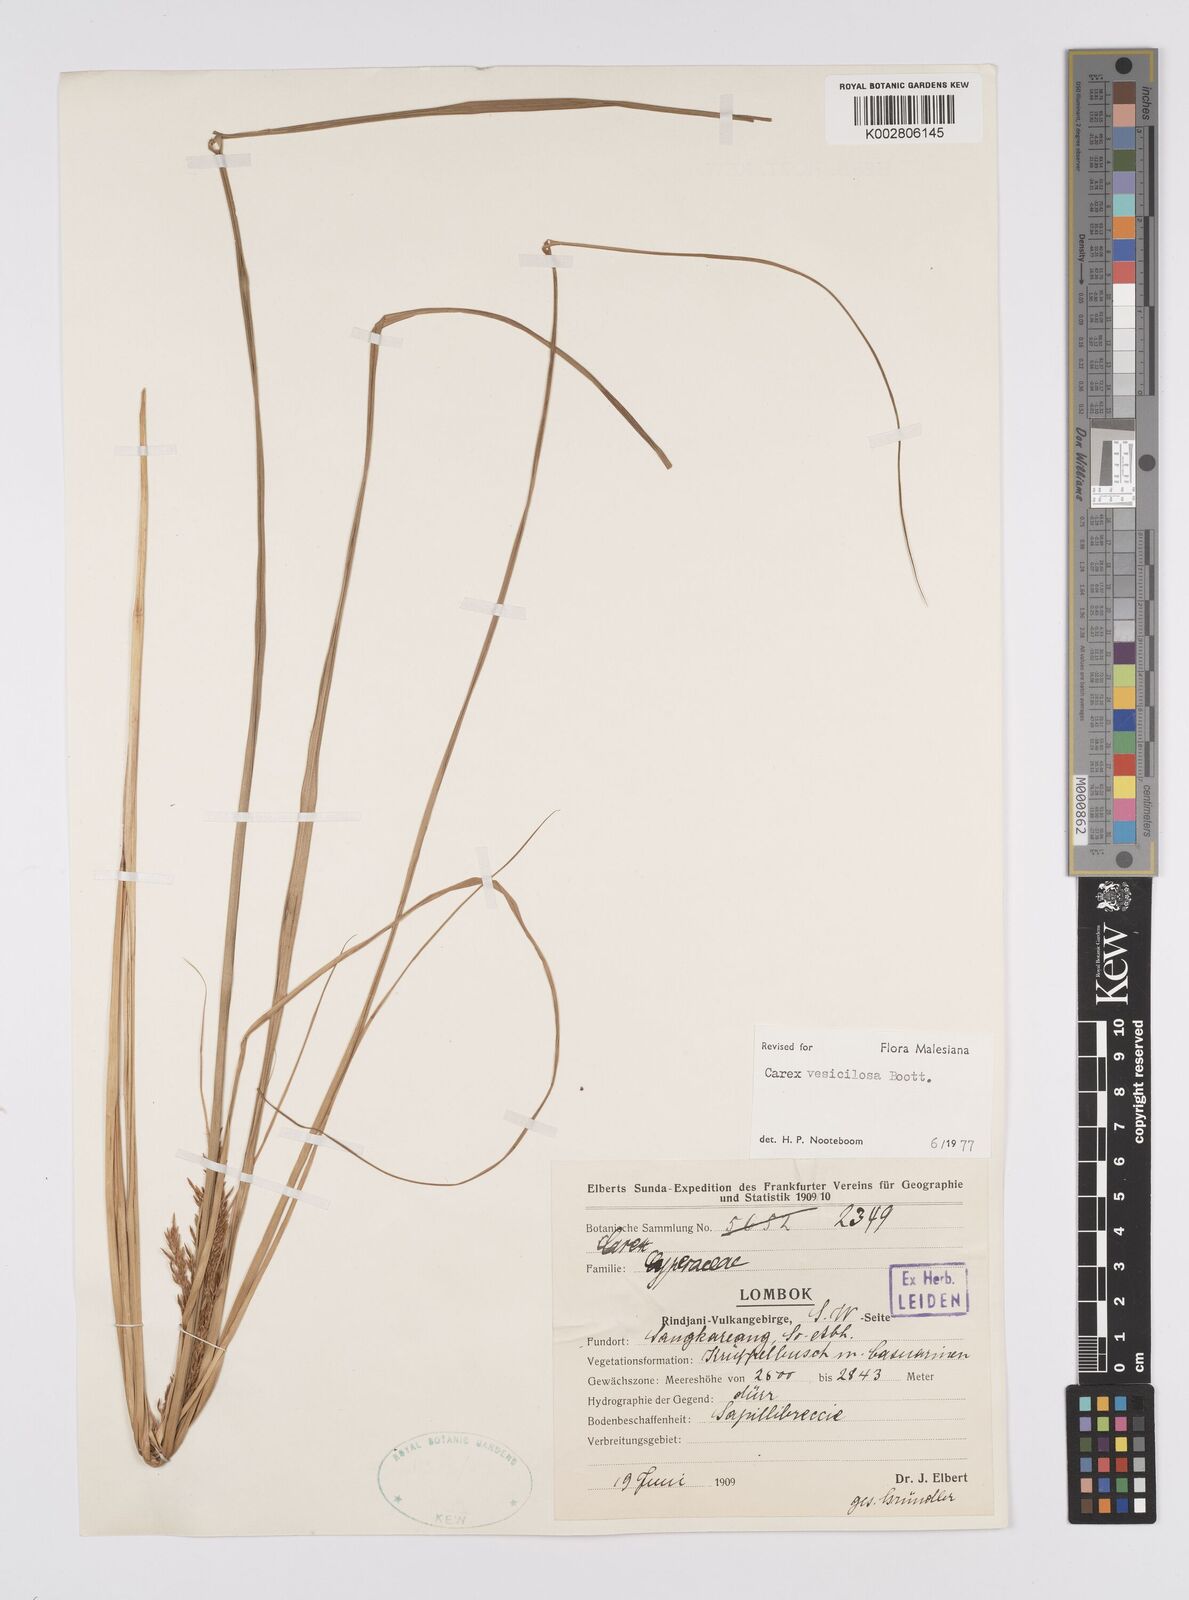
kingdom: Plantae
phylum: Tracheophyta
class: Liliopsida
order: Poales
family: Cyperaceae
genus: Carex
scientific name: Carex vesiculosa
